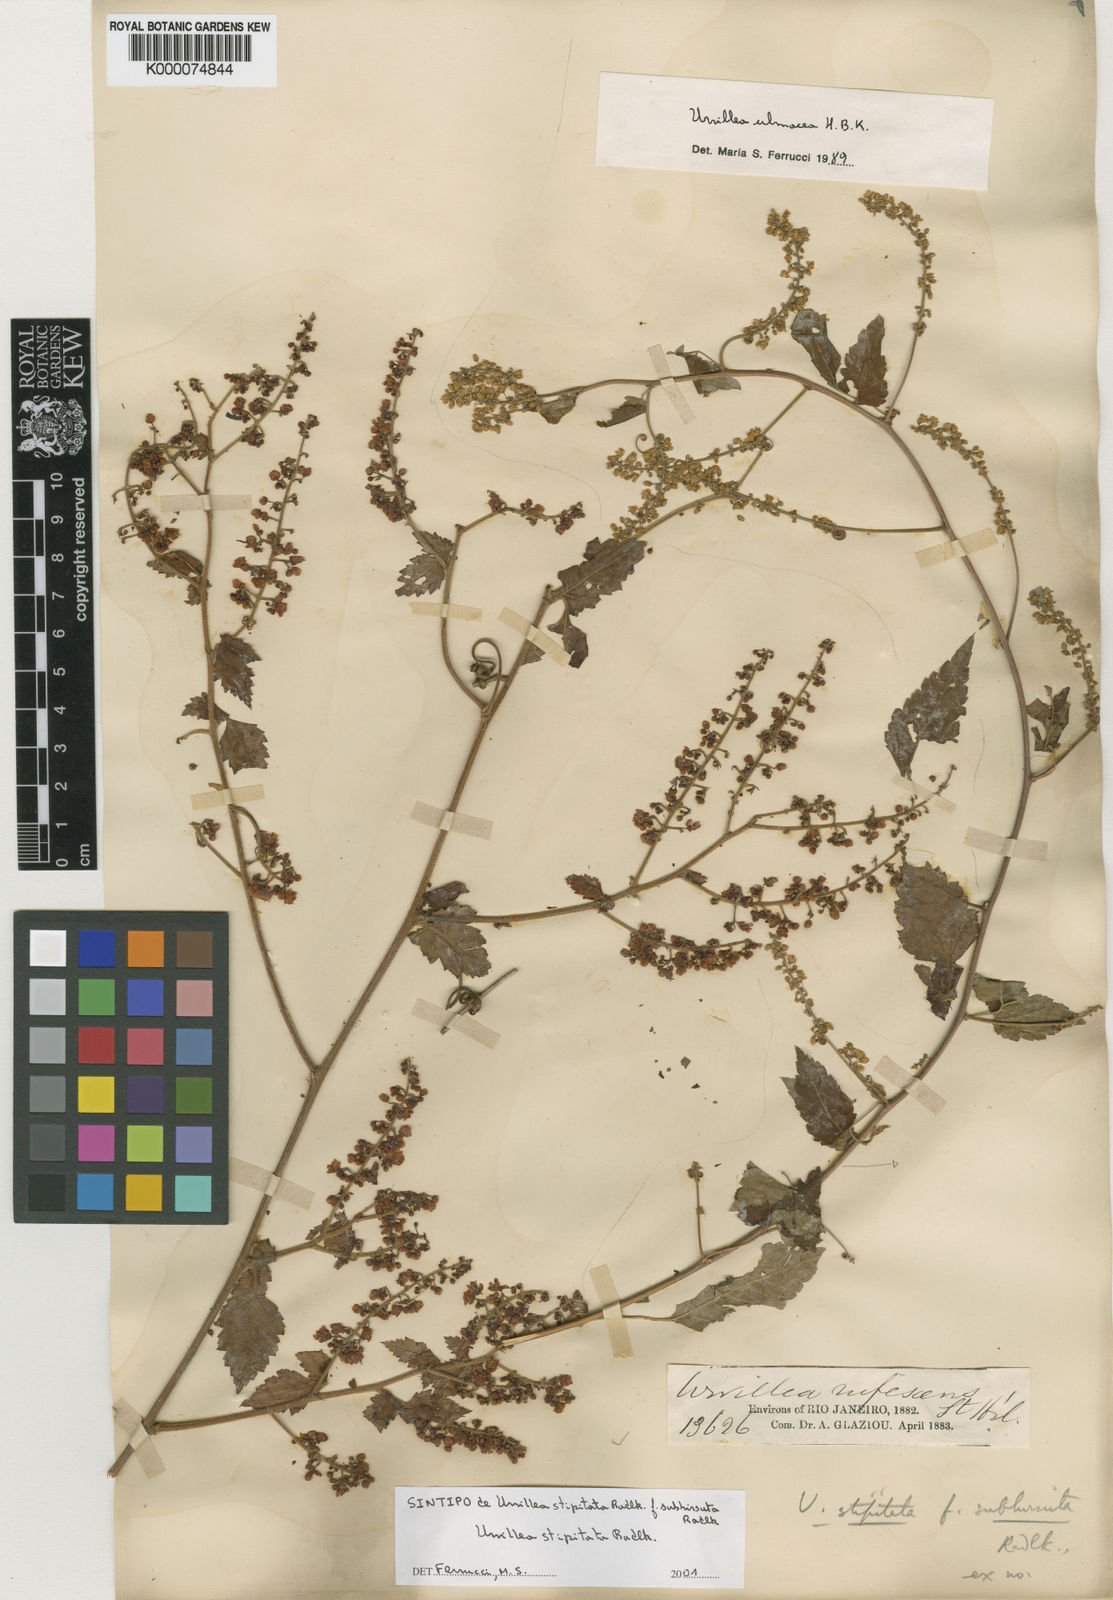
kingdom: Plantae
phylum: Tracheophyta
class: Magnoliopsida
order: Sapindales
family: Sapindaceae
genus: Urvillea
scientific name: Urvillea stipitata
